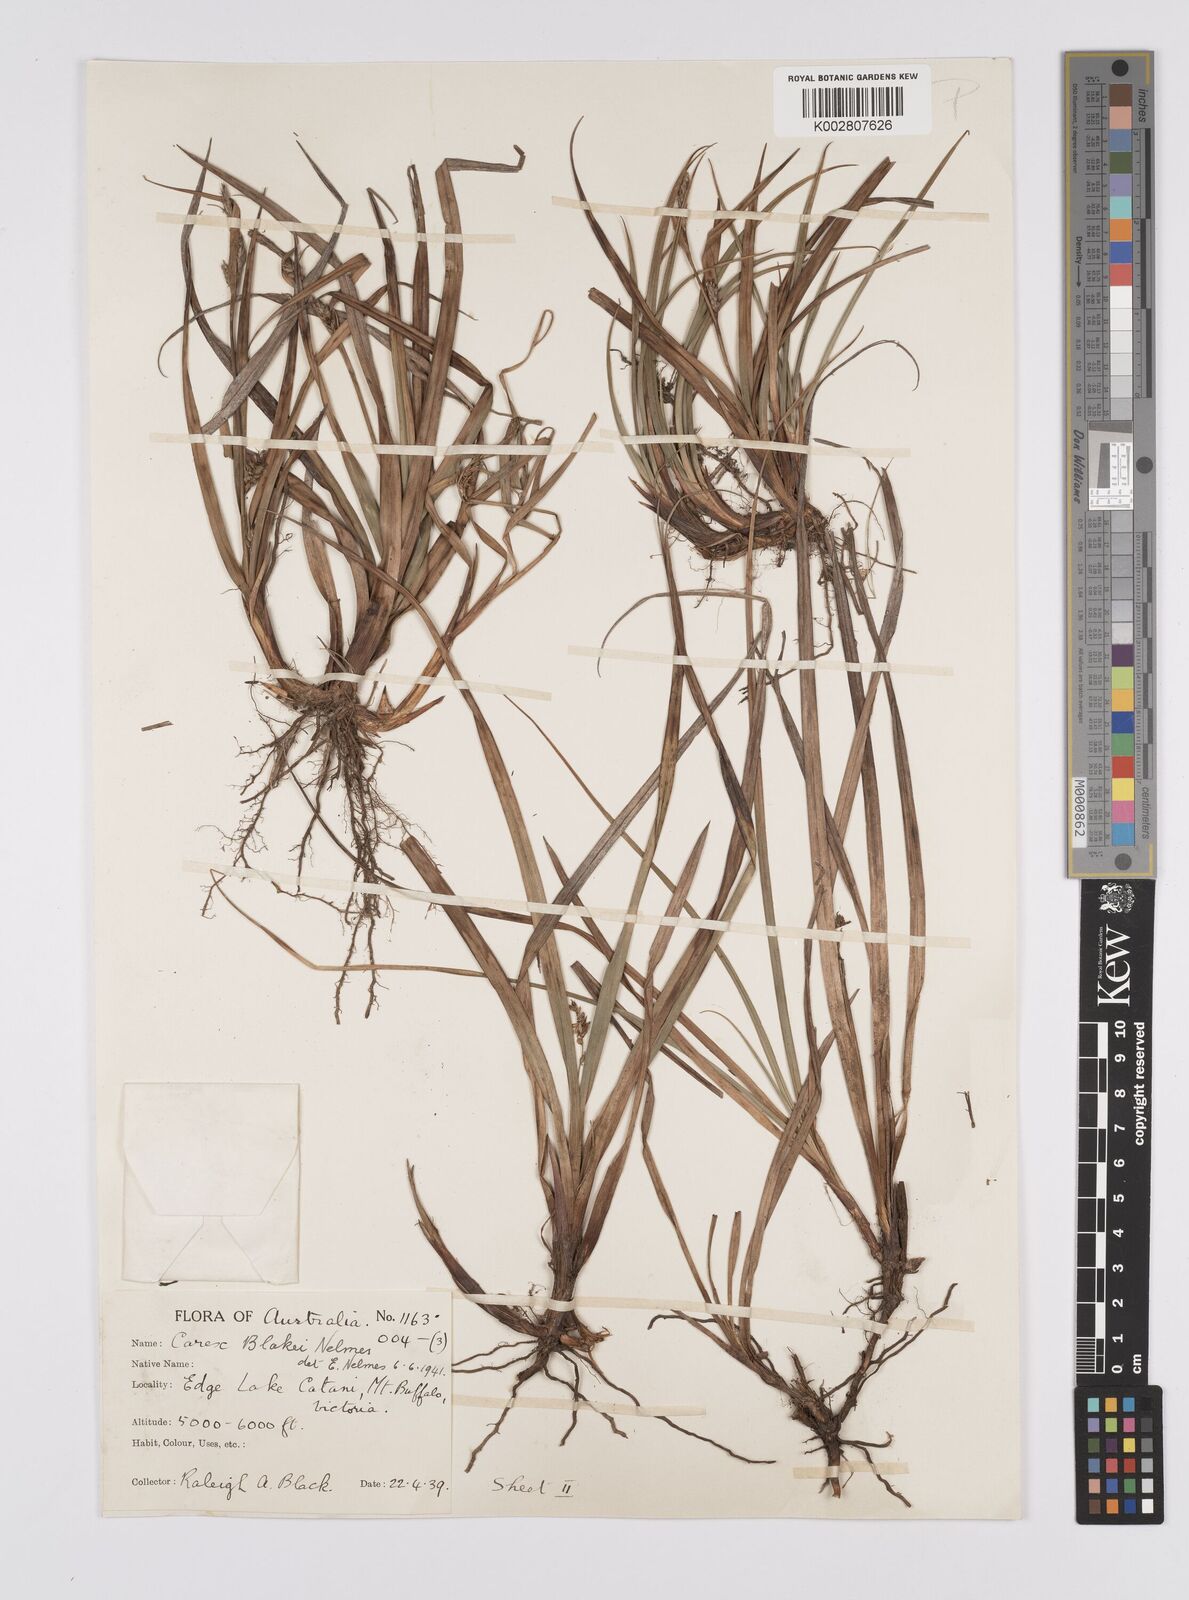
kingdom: Plantae
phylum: Tracheophyta
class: Liliopsida
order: Poales
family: Cyperaceae
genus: Carex
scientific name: Carex blakei
